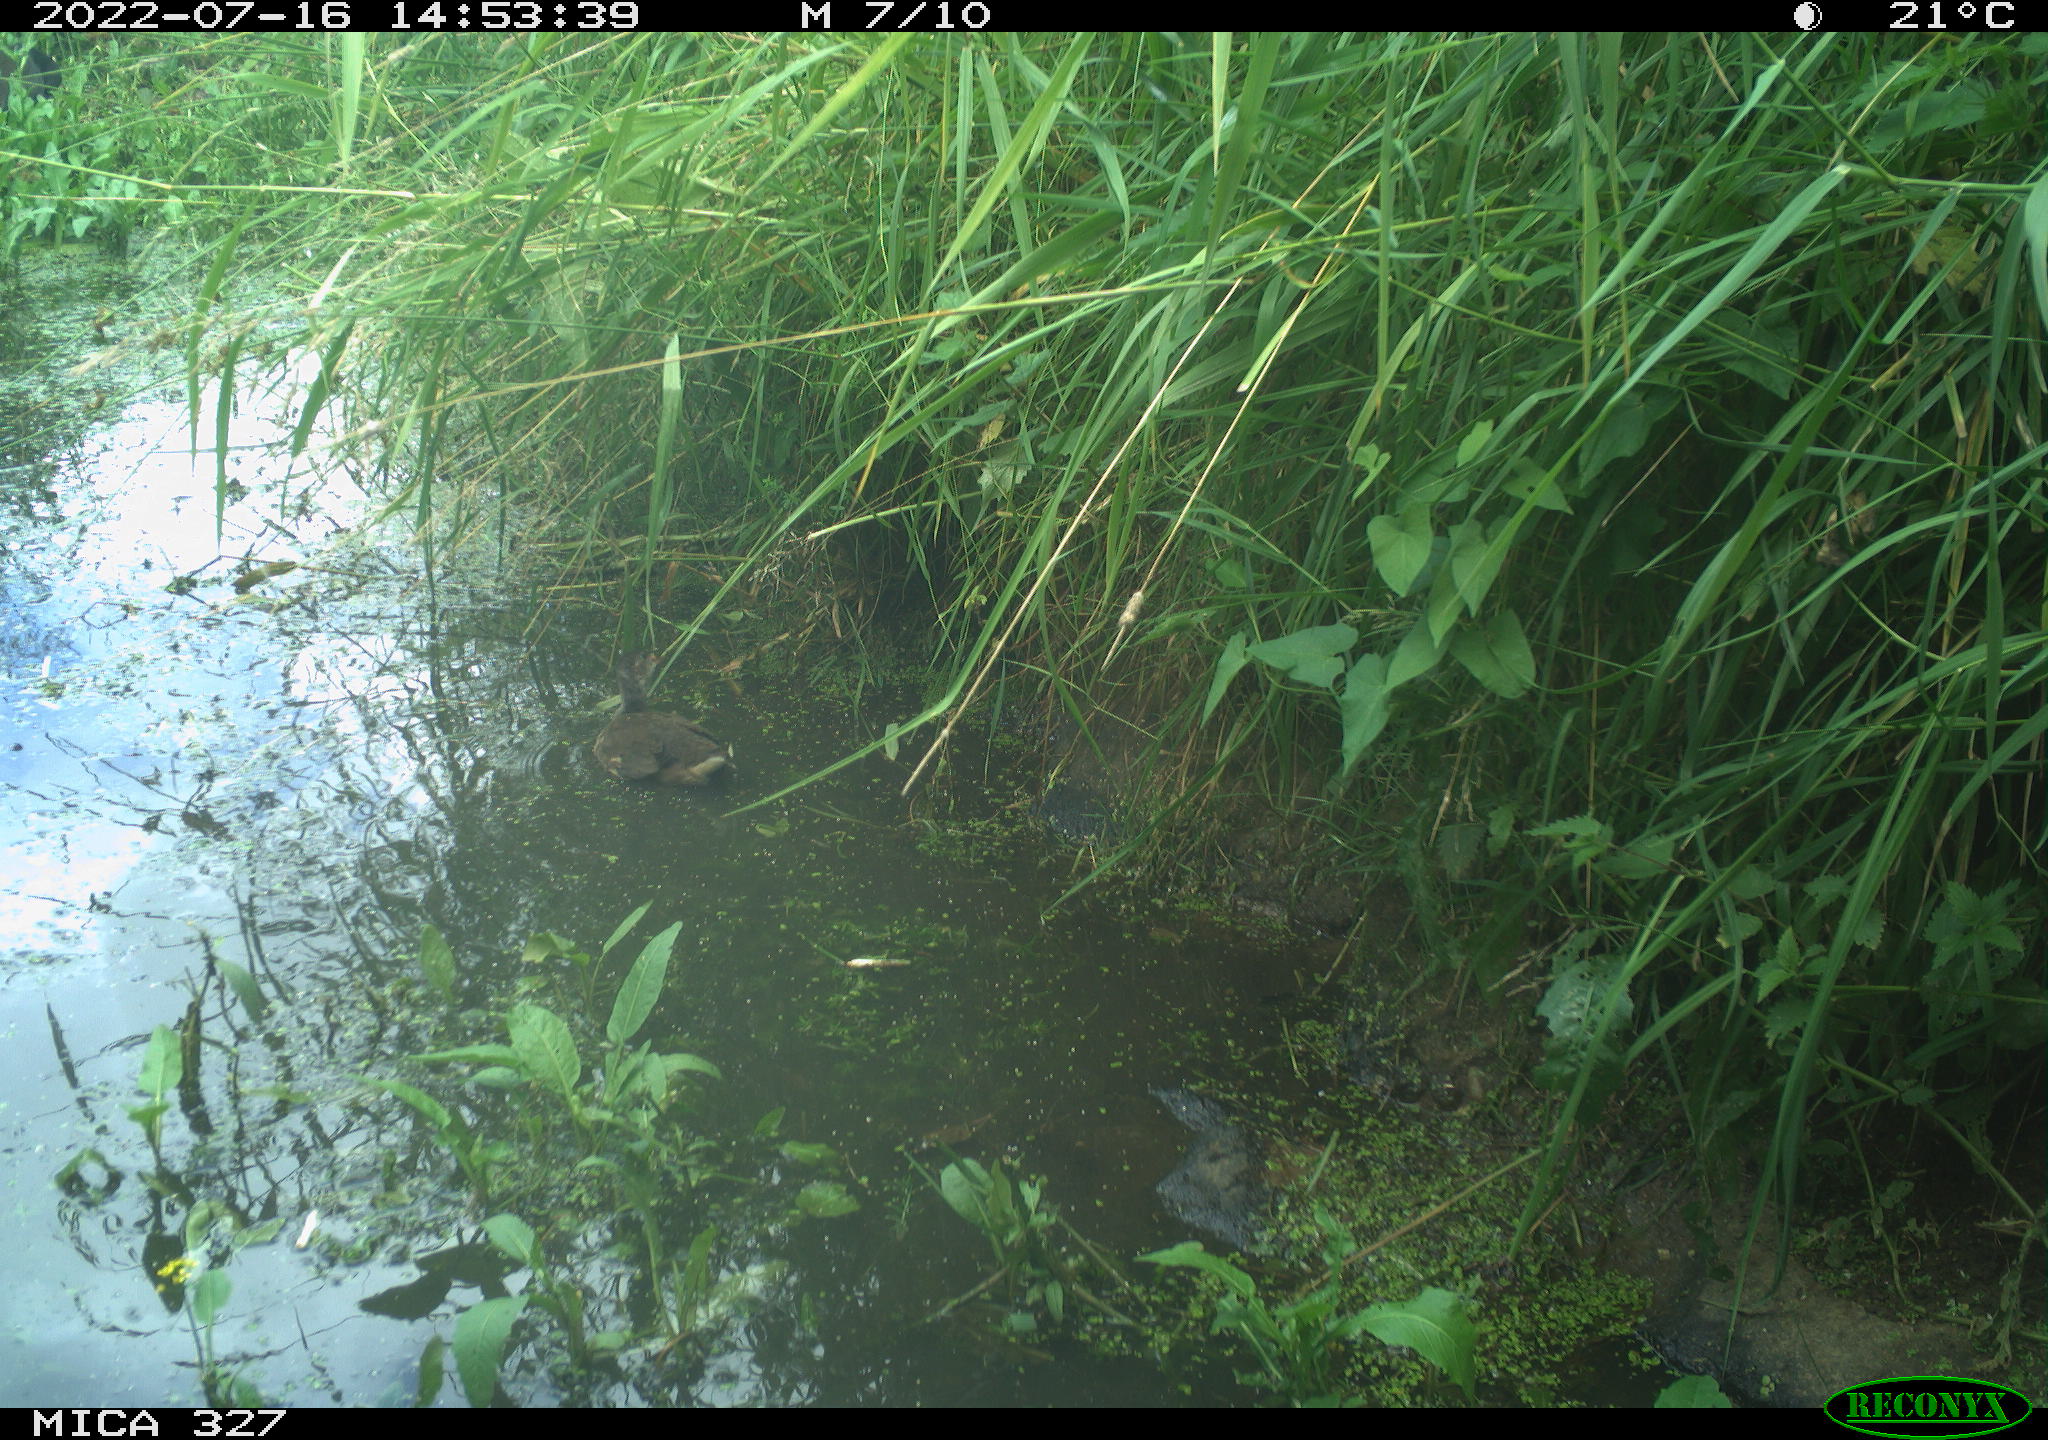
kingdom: Animalia
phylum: Chordata
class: Aves
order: Gruiformes
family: Rallidae
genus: Gallinula
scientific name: Gallinula chloropus
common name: Common moorhen
